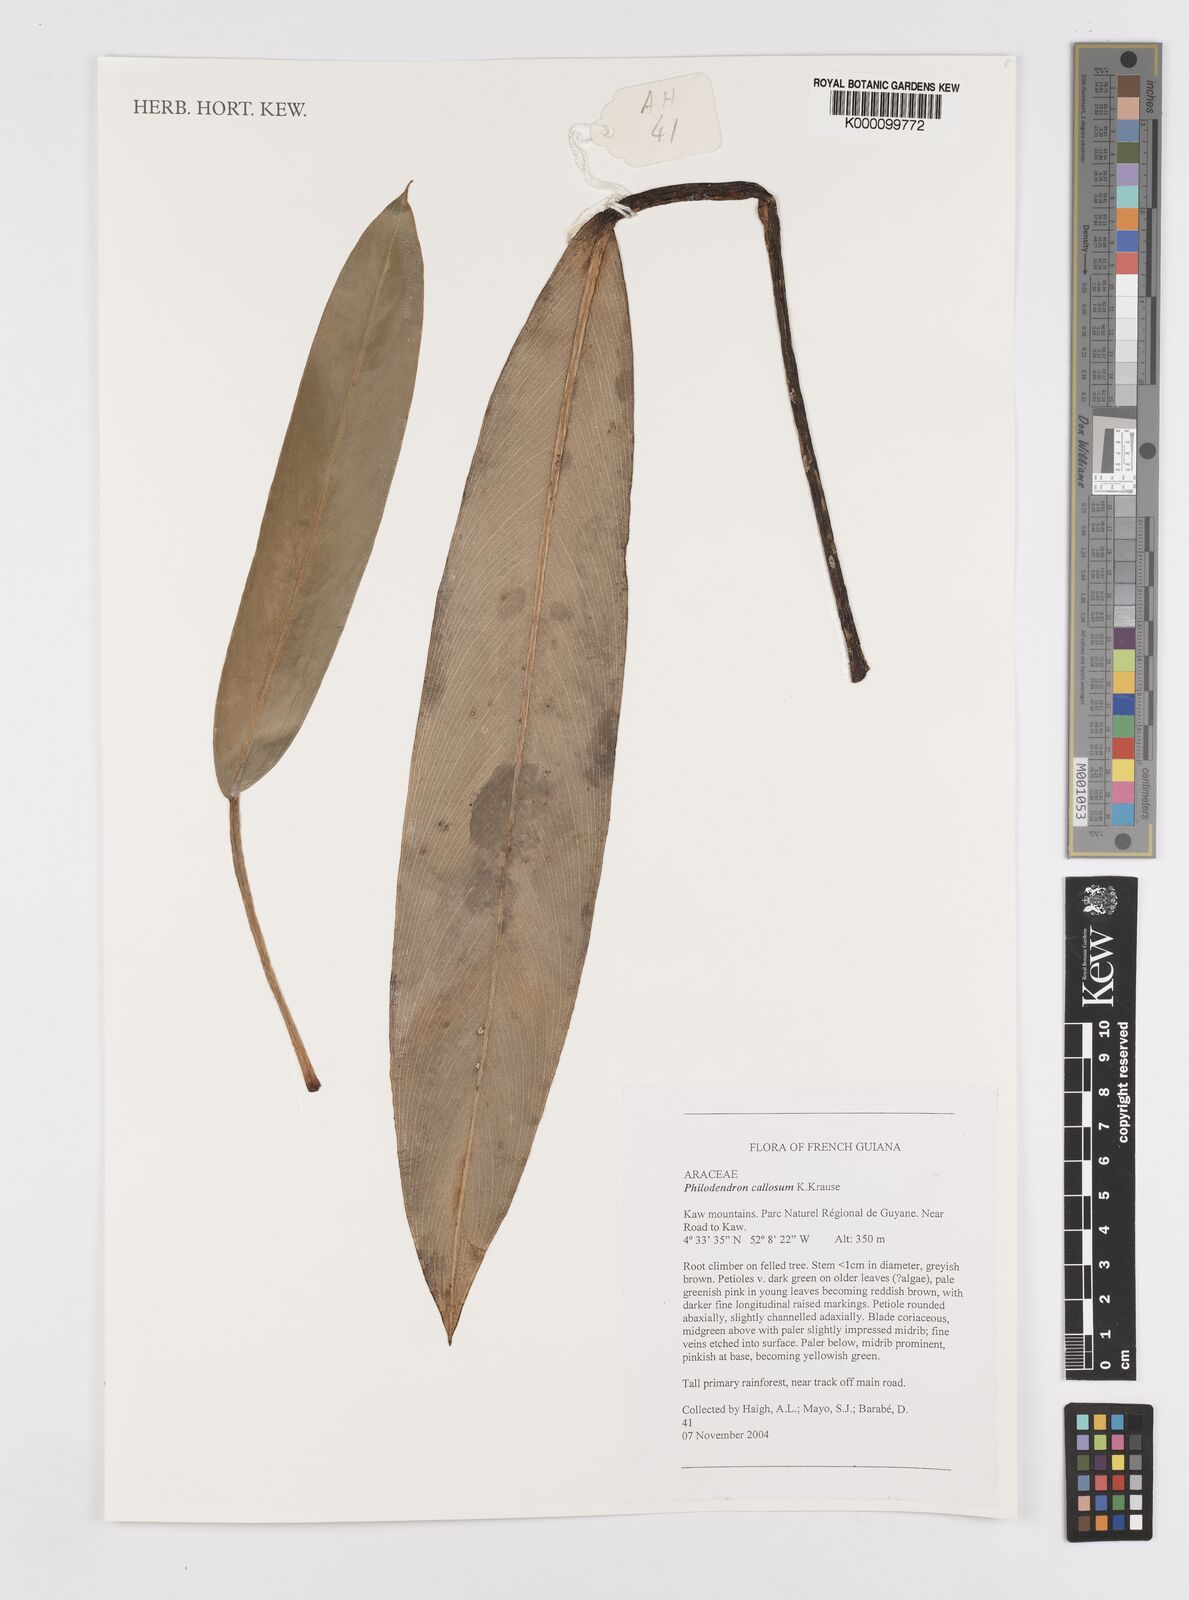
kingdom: Plantae
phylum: Tracheophyta
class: Liliopsida
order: Alismatales
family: Araceae
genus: Philodendron
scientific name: Philodendron callosum
